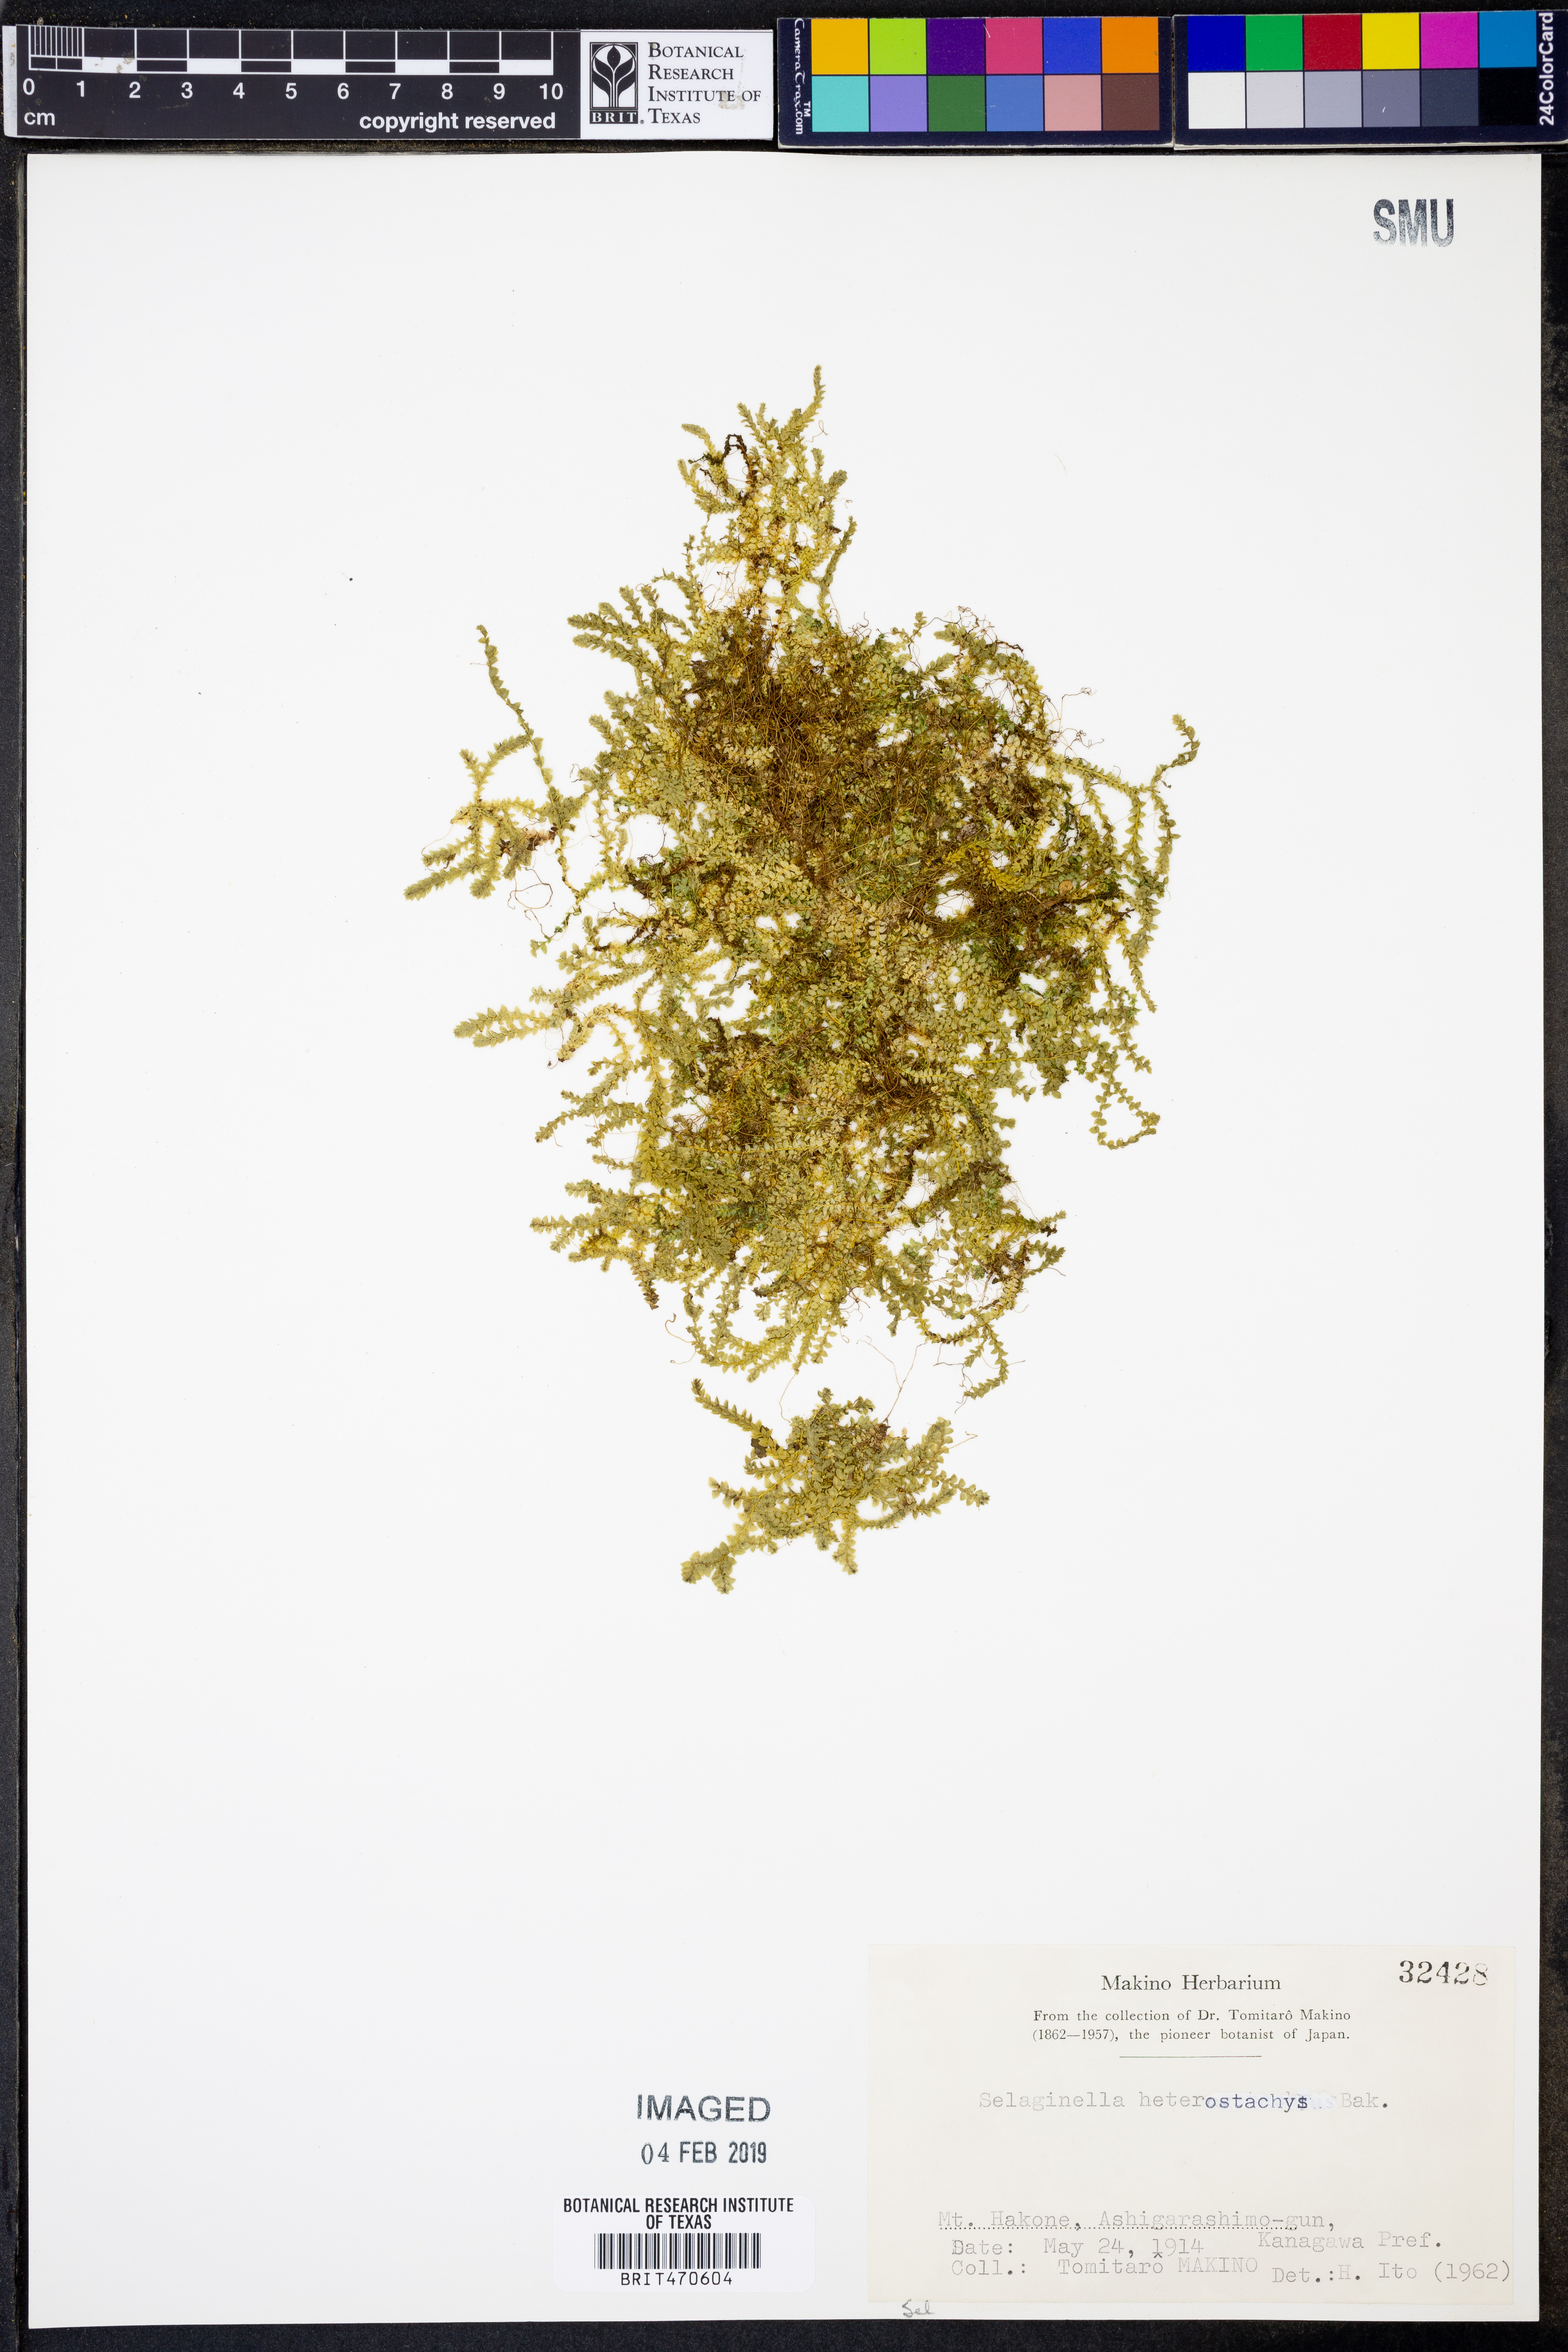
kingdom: Plantae
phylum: Tracheophyta
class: Lycopodiopsida
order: Selaginellales
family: Selaginellaceae
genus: Selaginella
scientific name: Selaginella heterostachys
